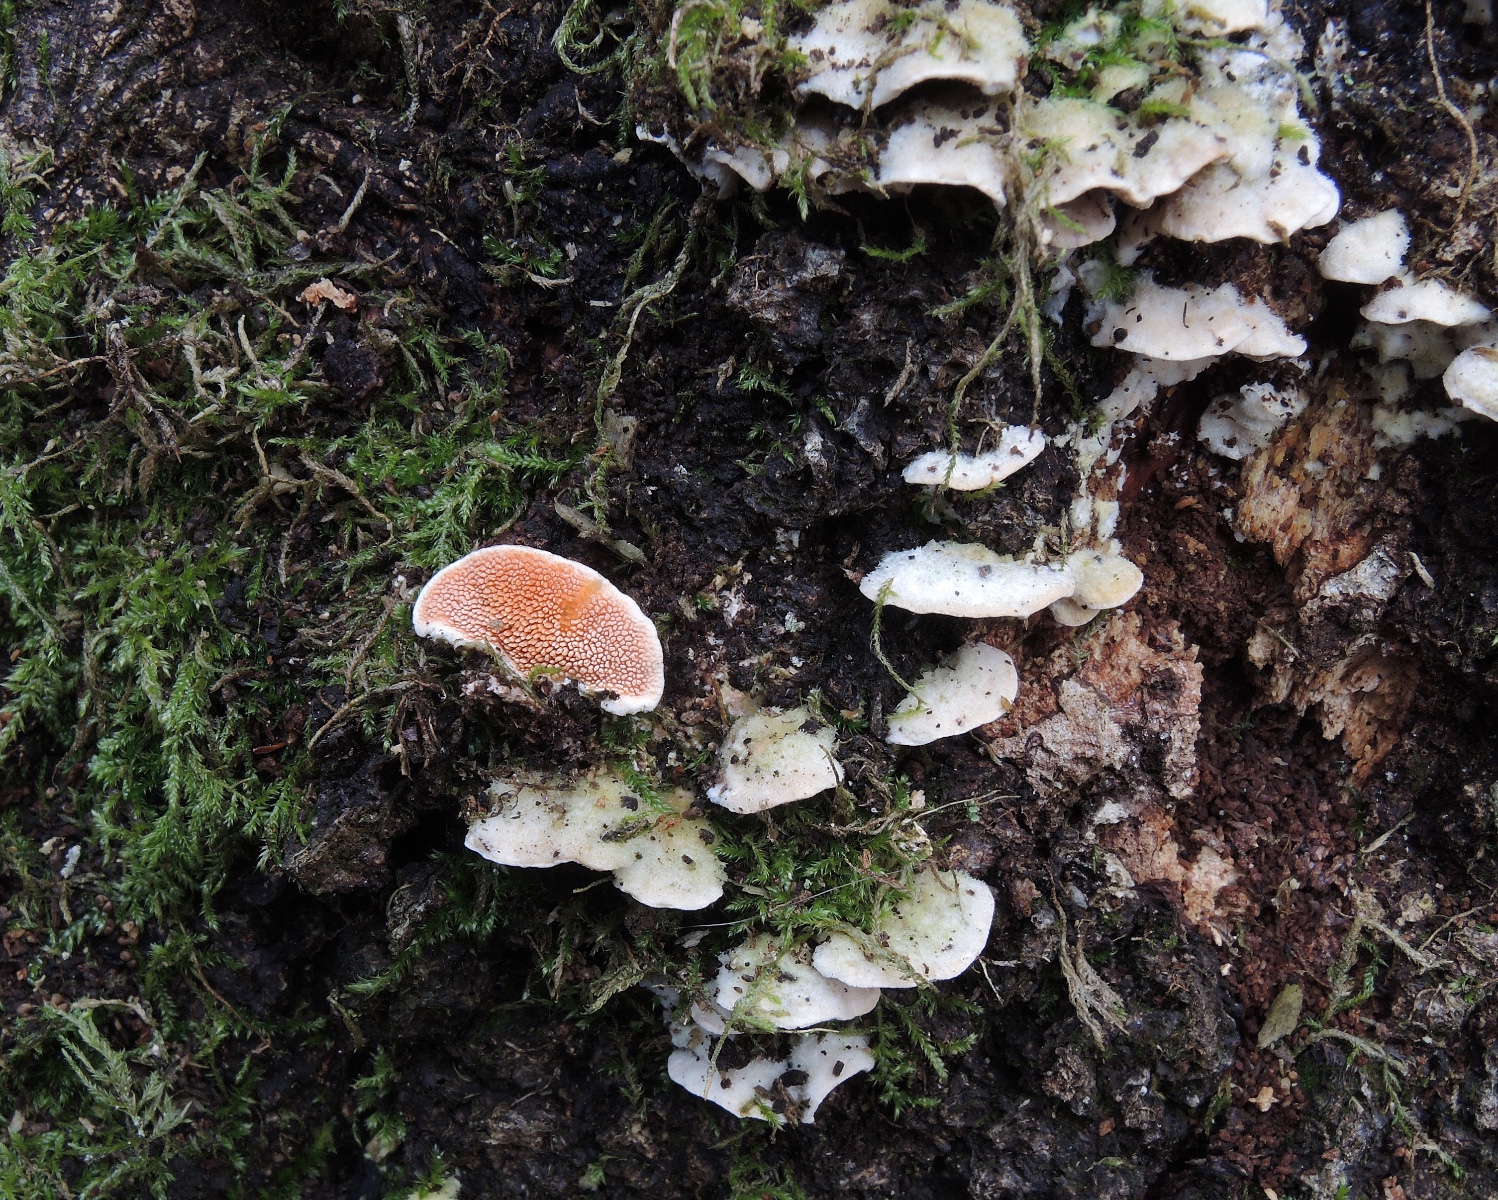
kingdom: Fungi
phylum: Basidiomycota
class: Agaricomycetes
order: Polyporales
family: Steccherinaceae
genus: Steccherinum
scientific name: Steccherinum
